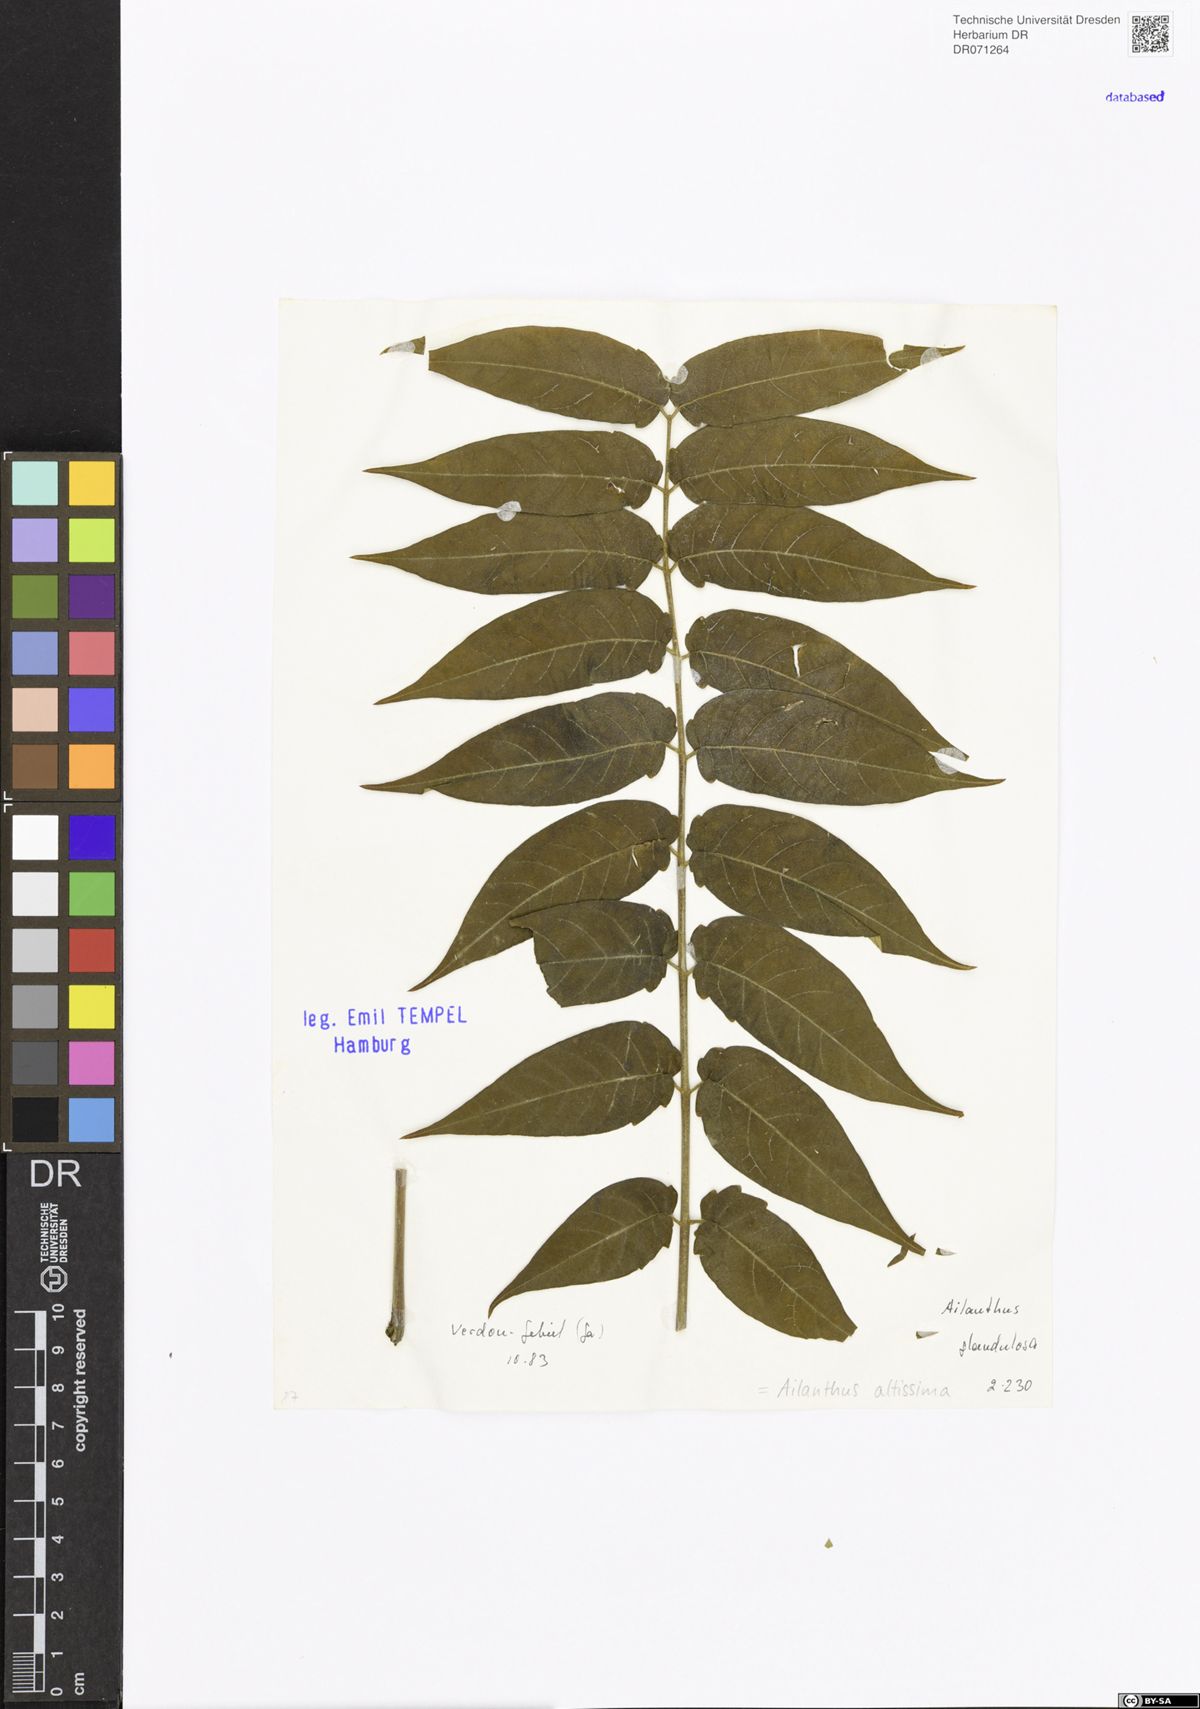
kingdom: Plantae
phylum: Tracheophyta
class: Magnoliopsida
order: Sapindales
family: Simaroubaceae
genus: Ailanthus
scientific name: Ailanthus altissima
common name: Tree-of-heaven
